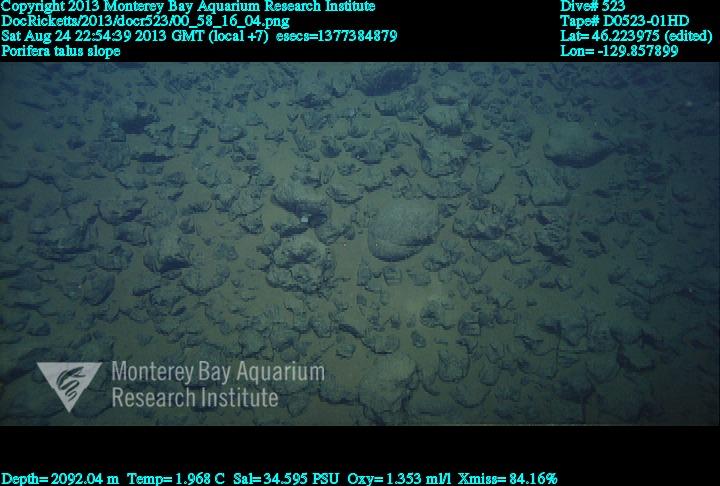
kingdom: Animalia
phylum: Porifera
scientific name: Porifera
